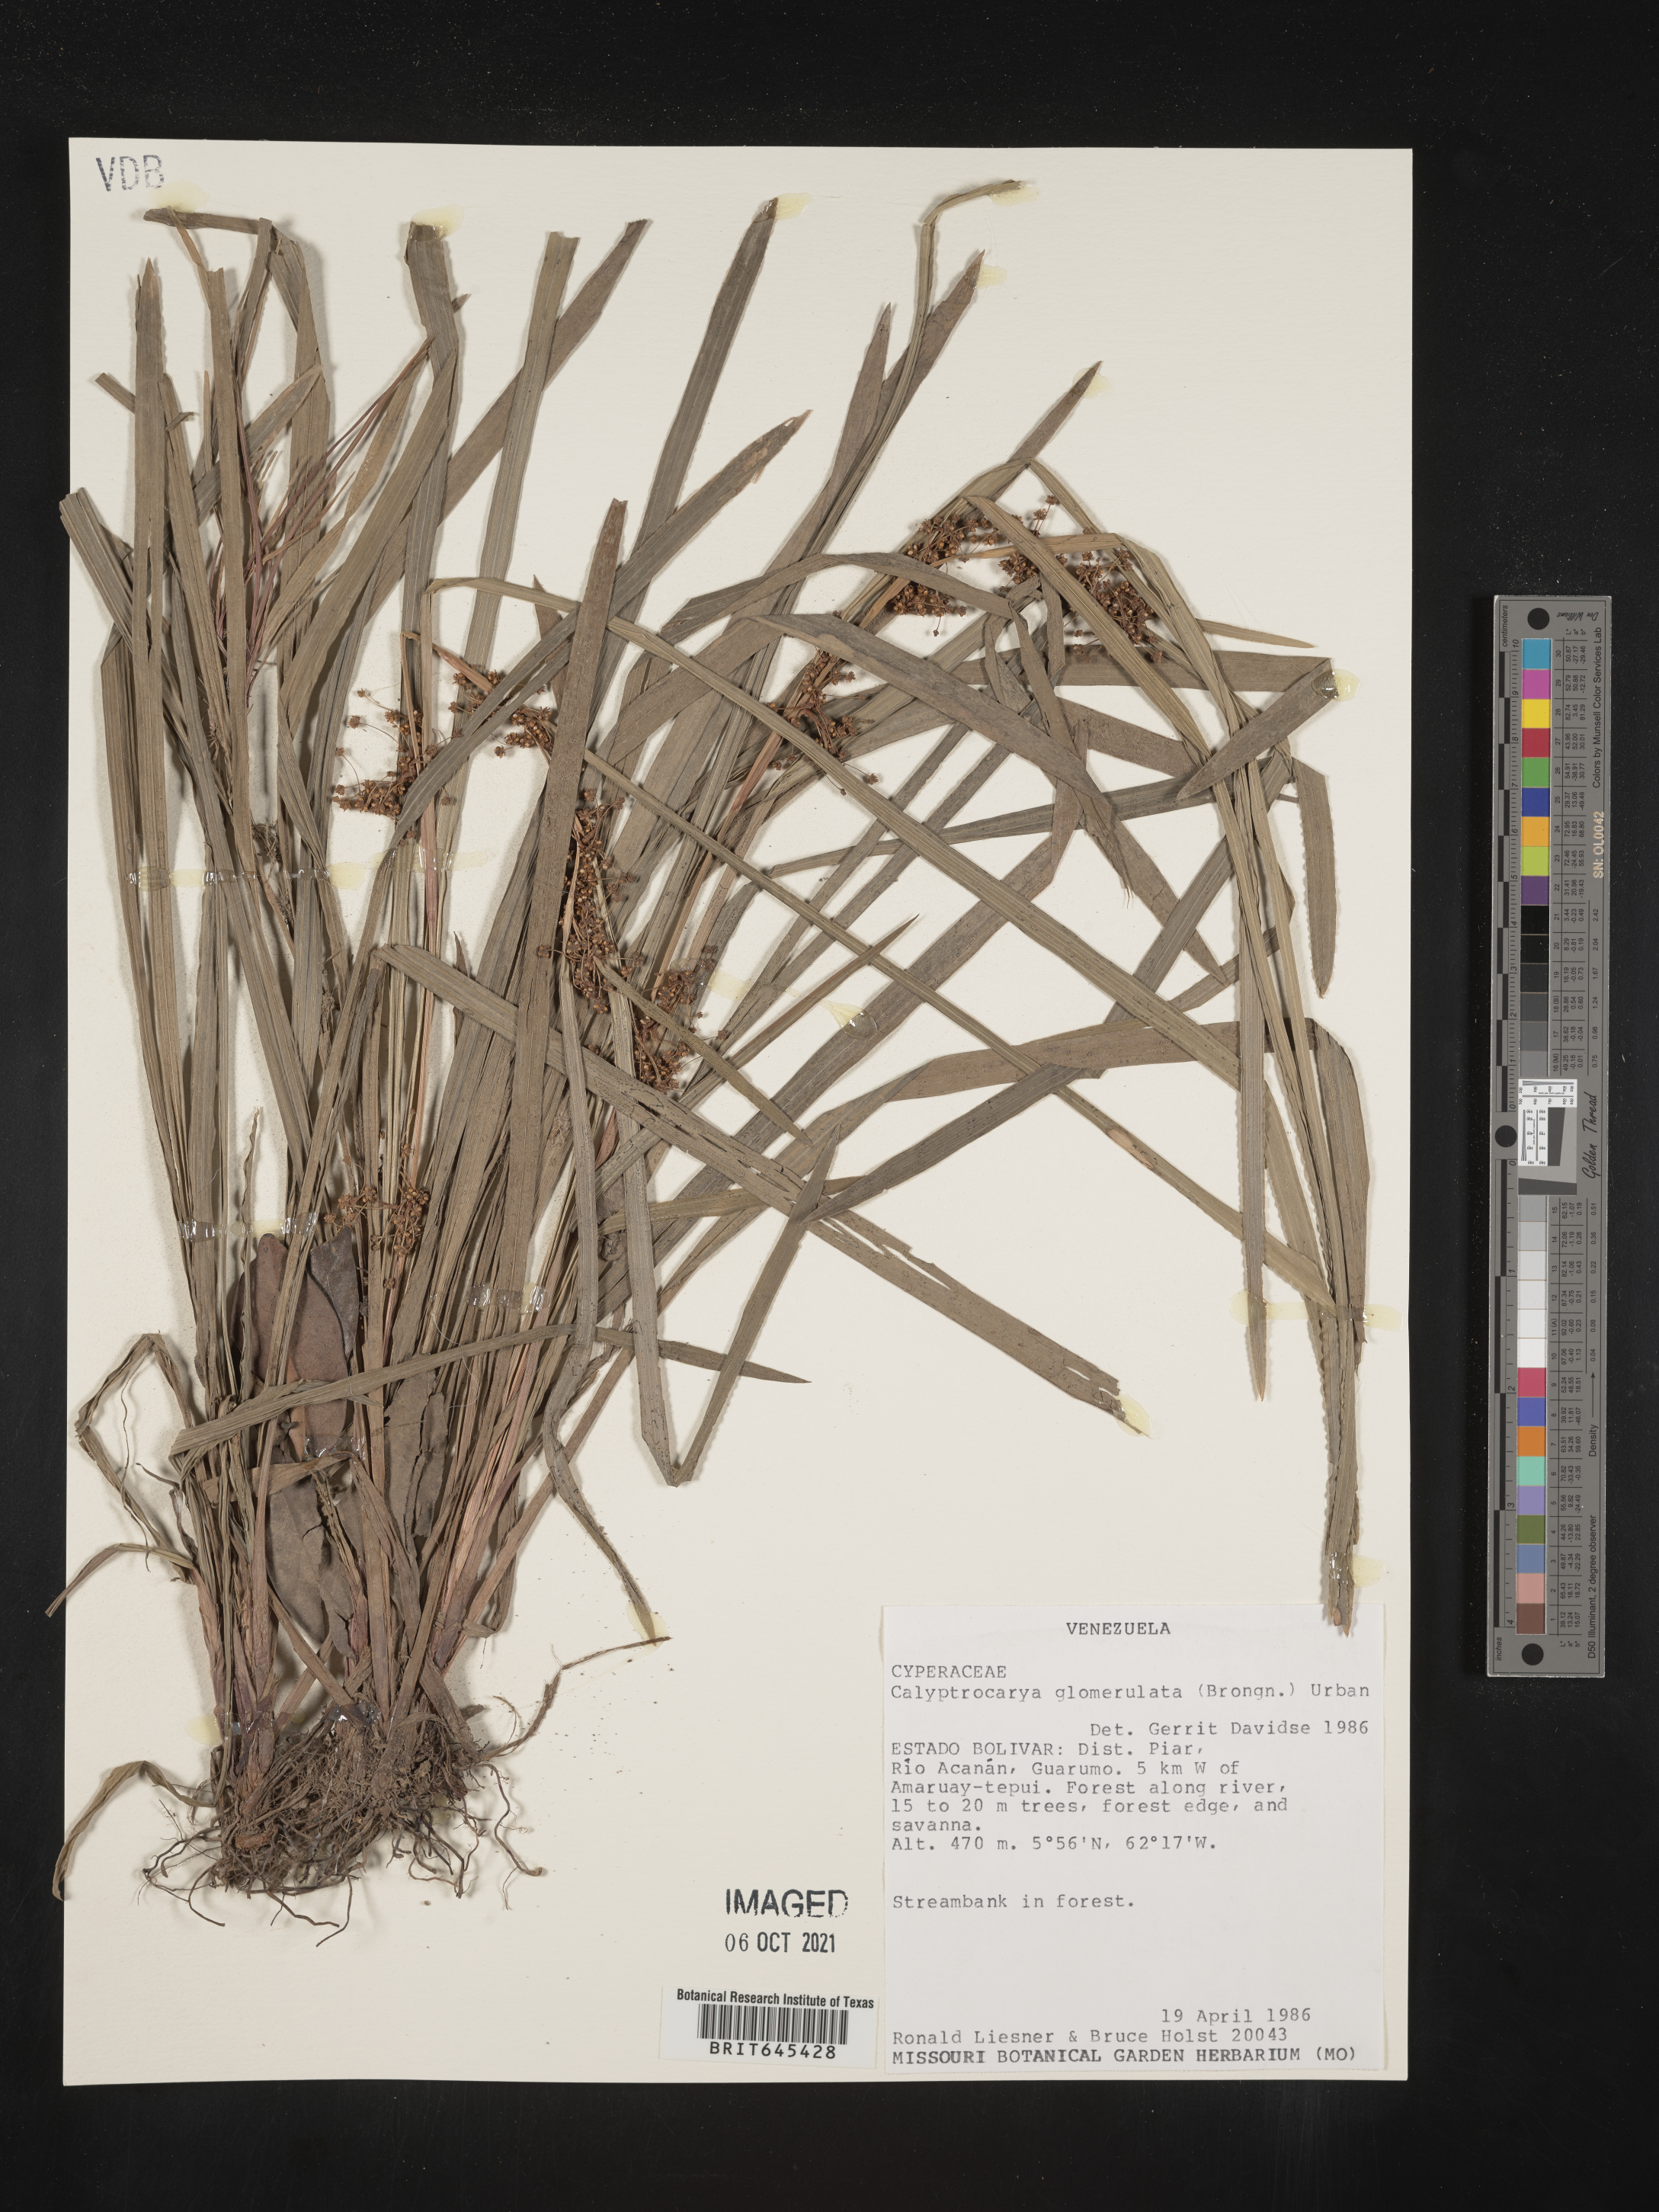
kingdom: Plantae
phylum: Tracheophyta
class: Liliopsida
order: Poales
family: Cyperaceae
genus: Calyptrocarya
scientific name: Calyptrocarya glomerulata
